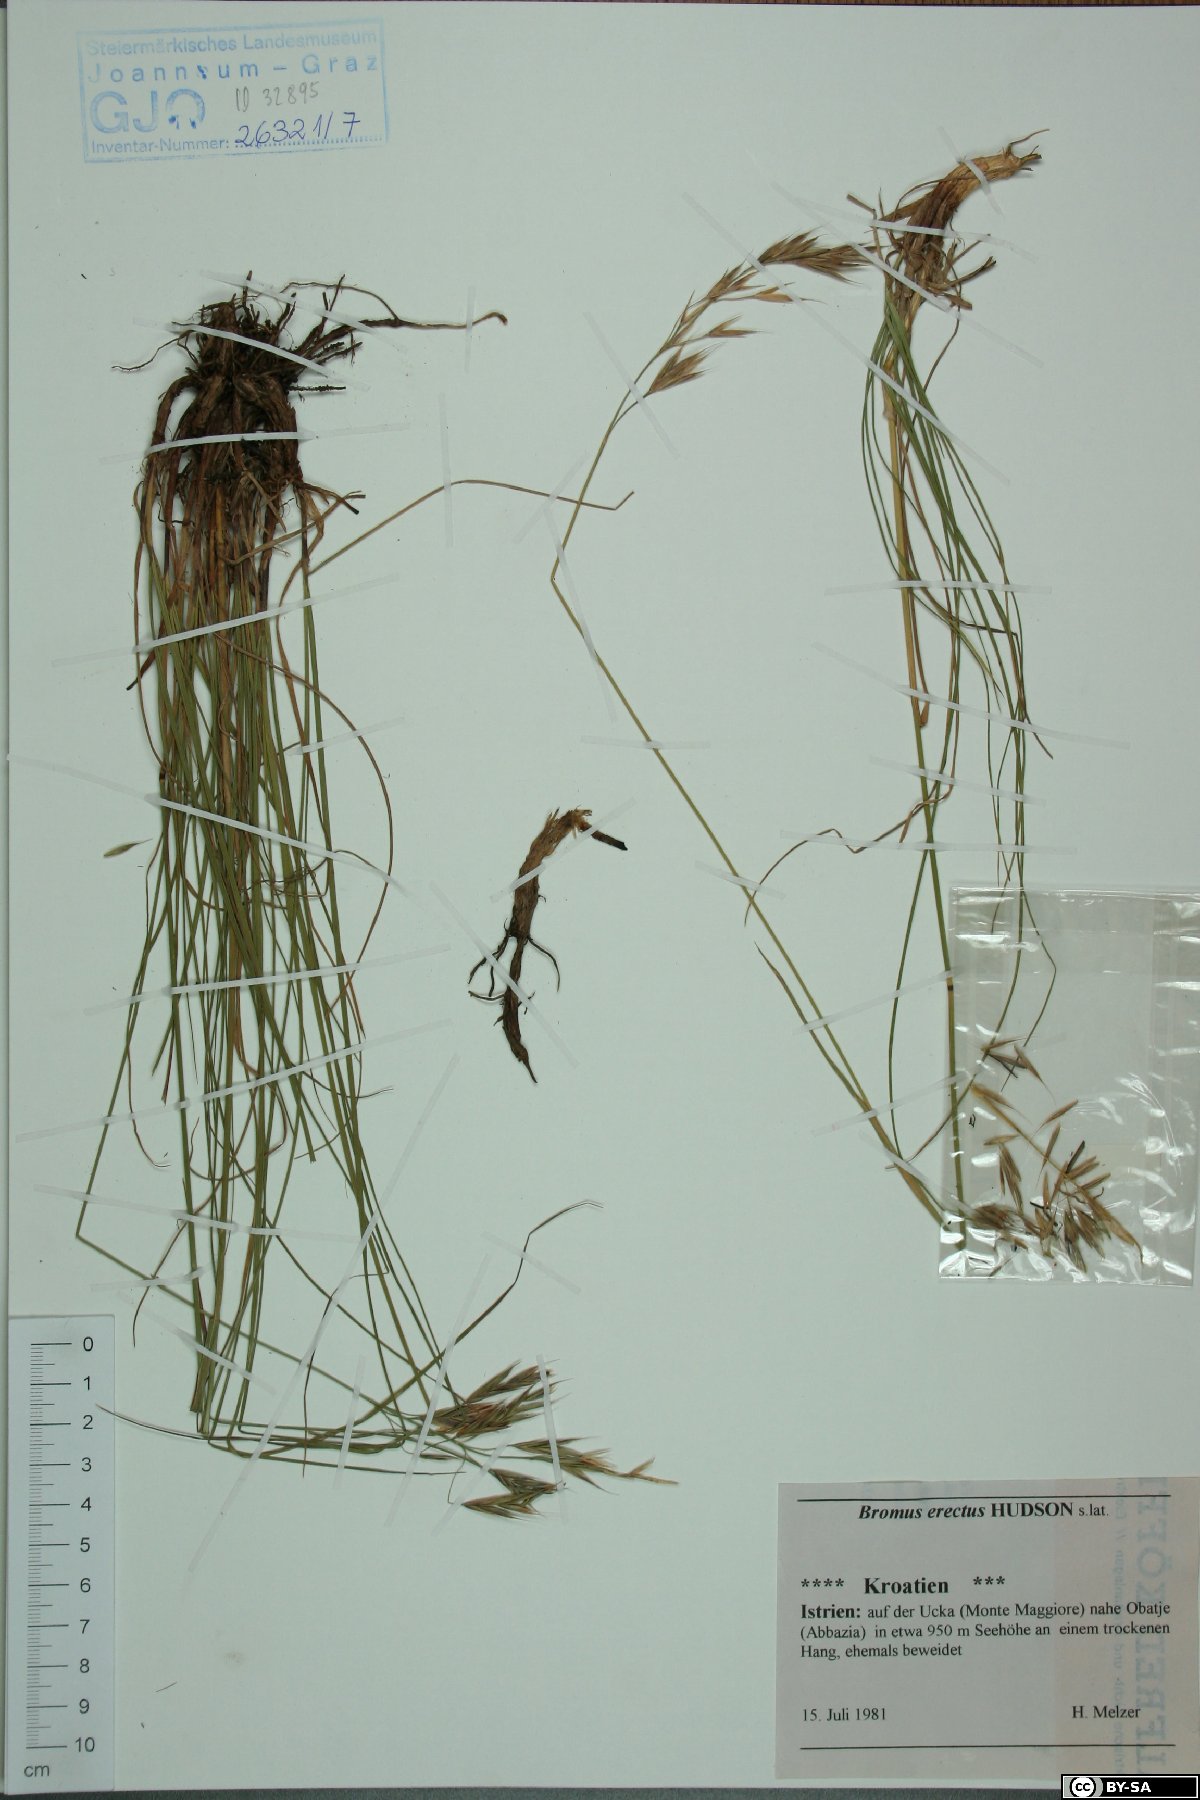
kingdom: Plantae
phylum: Tracheophyta
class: Liliopsida
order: Poales
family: Poaceae
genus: Bromus
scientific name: Bromus erectus
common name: Erect brome
